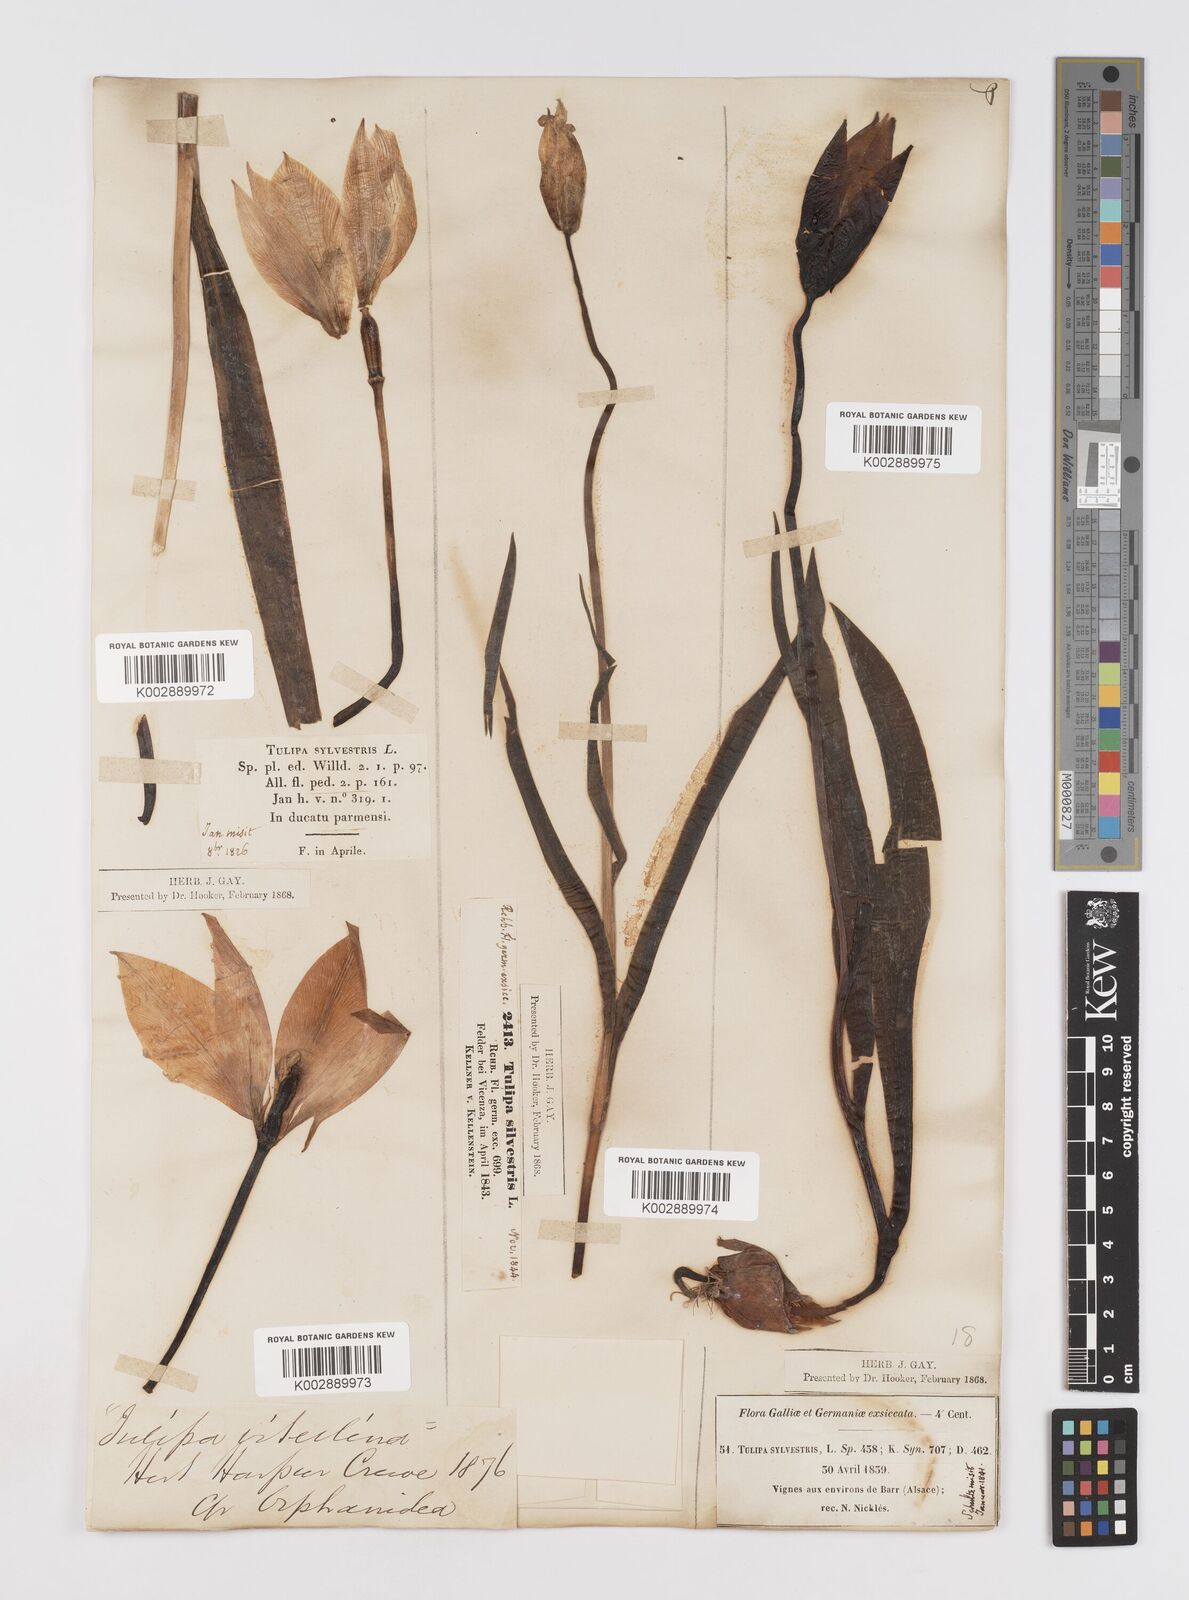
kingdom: Plantae
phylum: Tracheophyta
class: Liliopsida
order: Liliales
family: Liliaceae
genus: Tulipa
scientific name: Tulipa sylvestris
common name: Wild tulip
